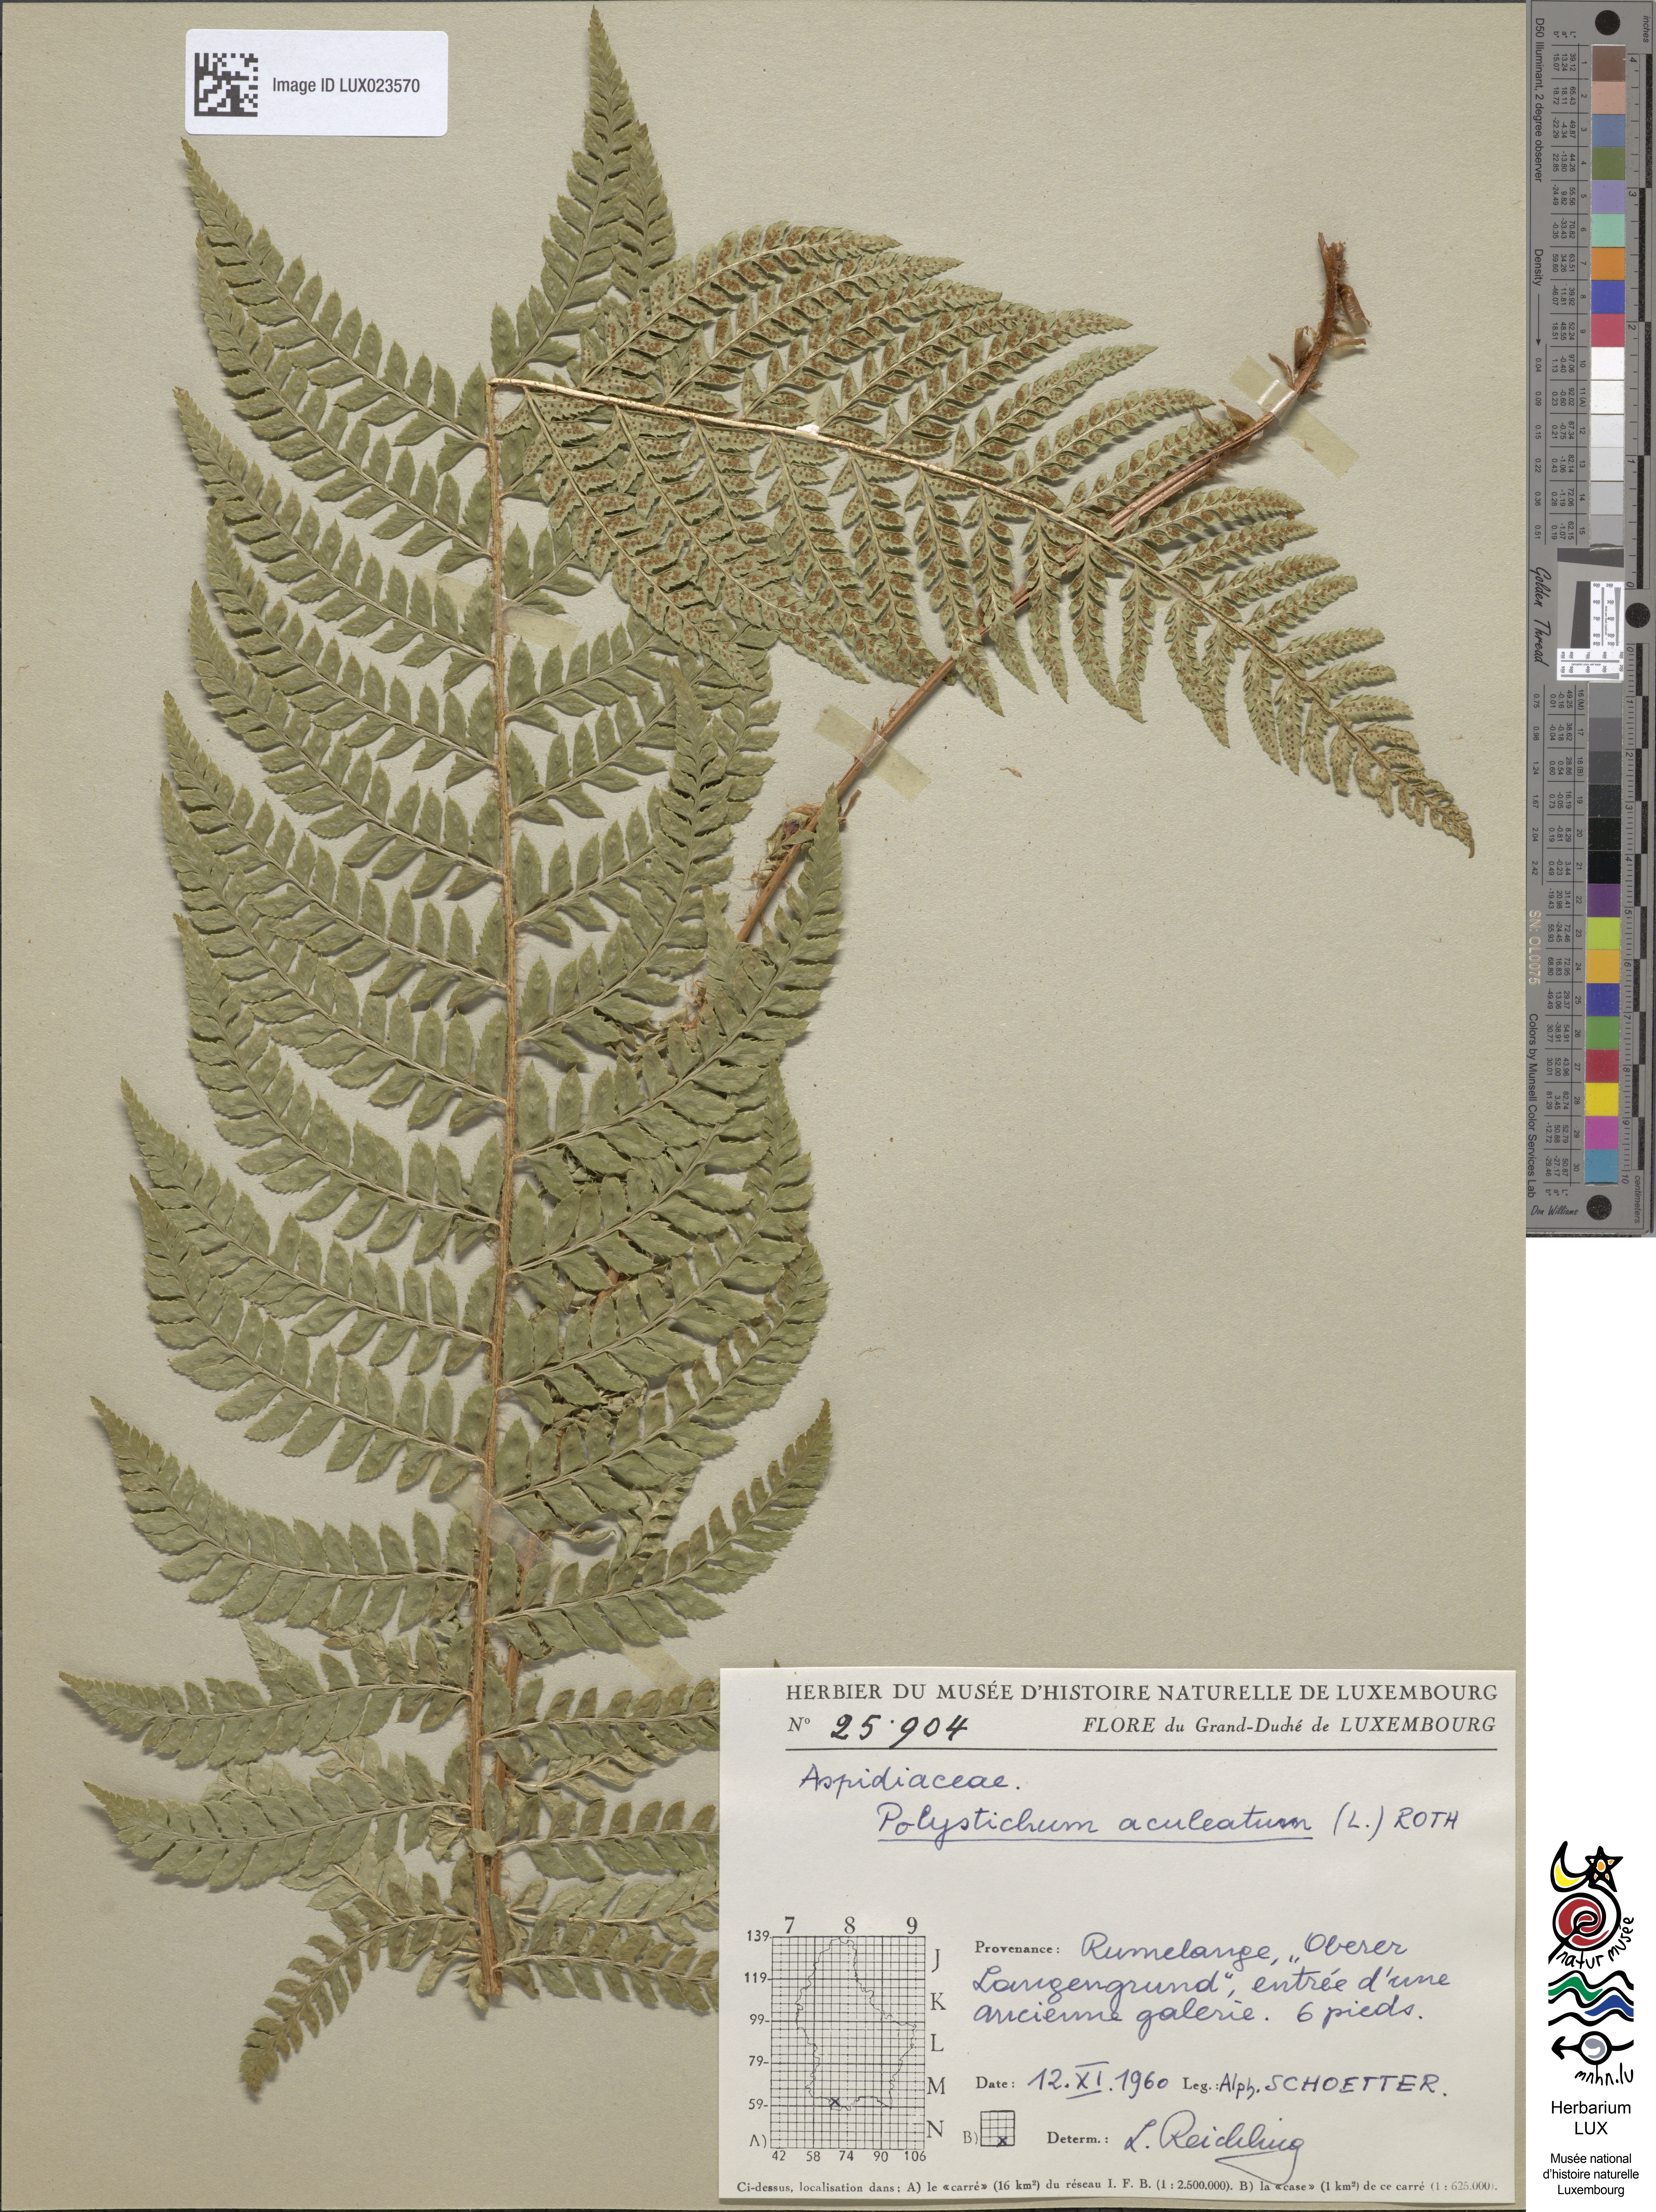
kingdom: Plantae
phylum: Tracheophyta
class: Polypodiopsida
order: Polypodiales
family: Dryopteridaceae
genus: Polystichum
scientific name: Polystichum aculeatum
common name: Hard shield-fern
